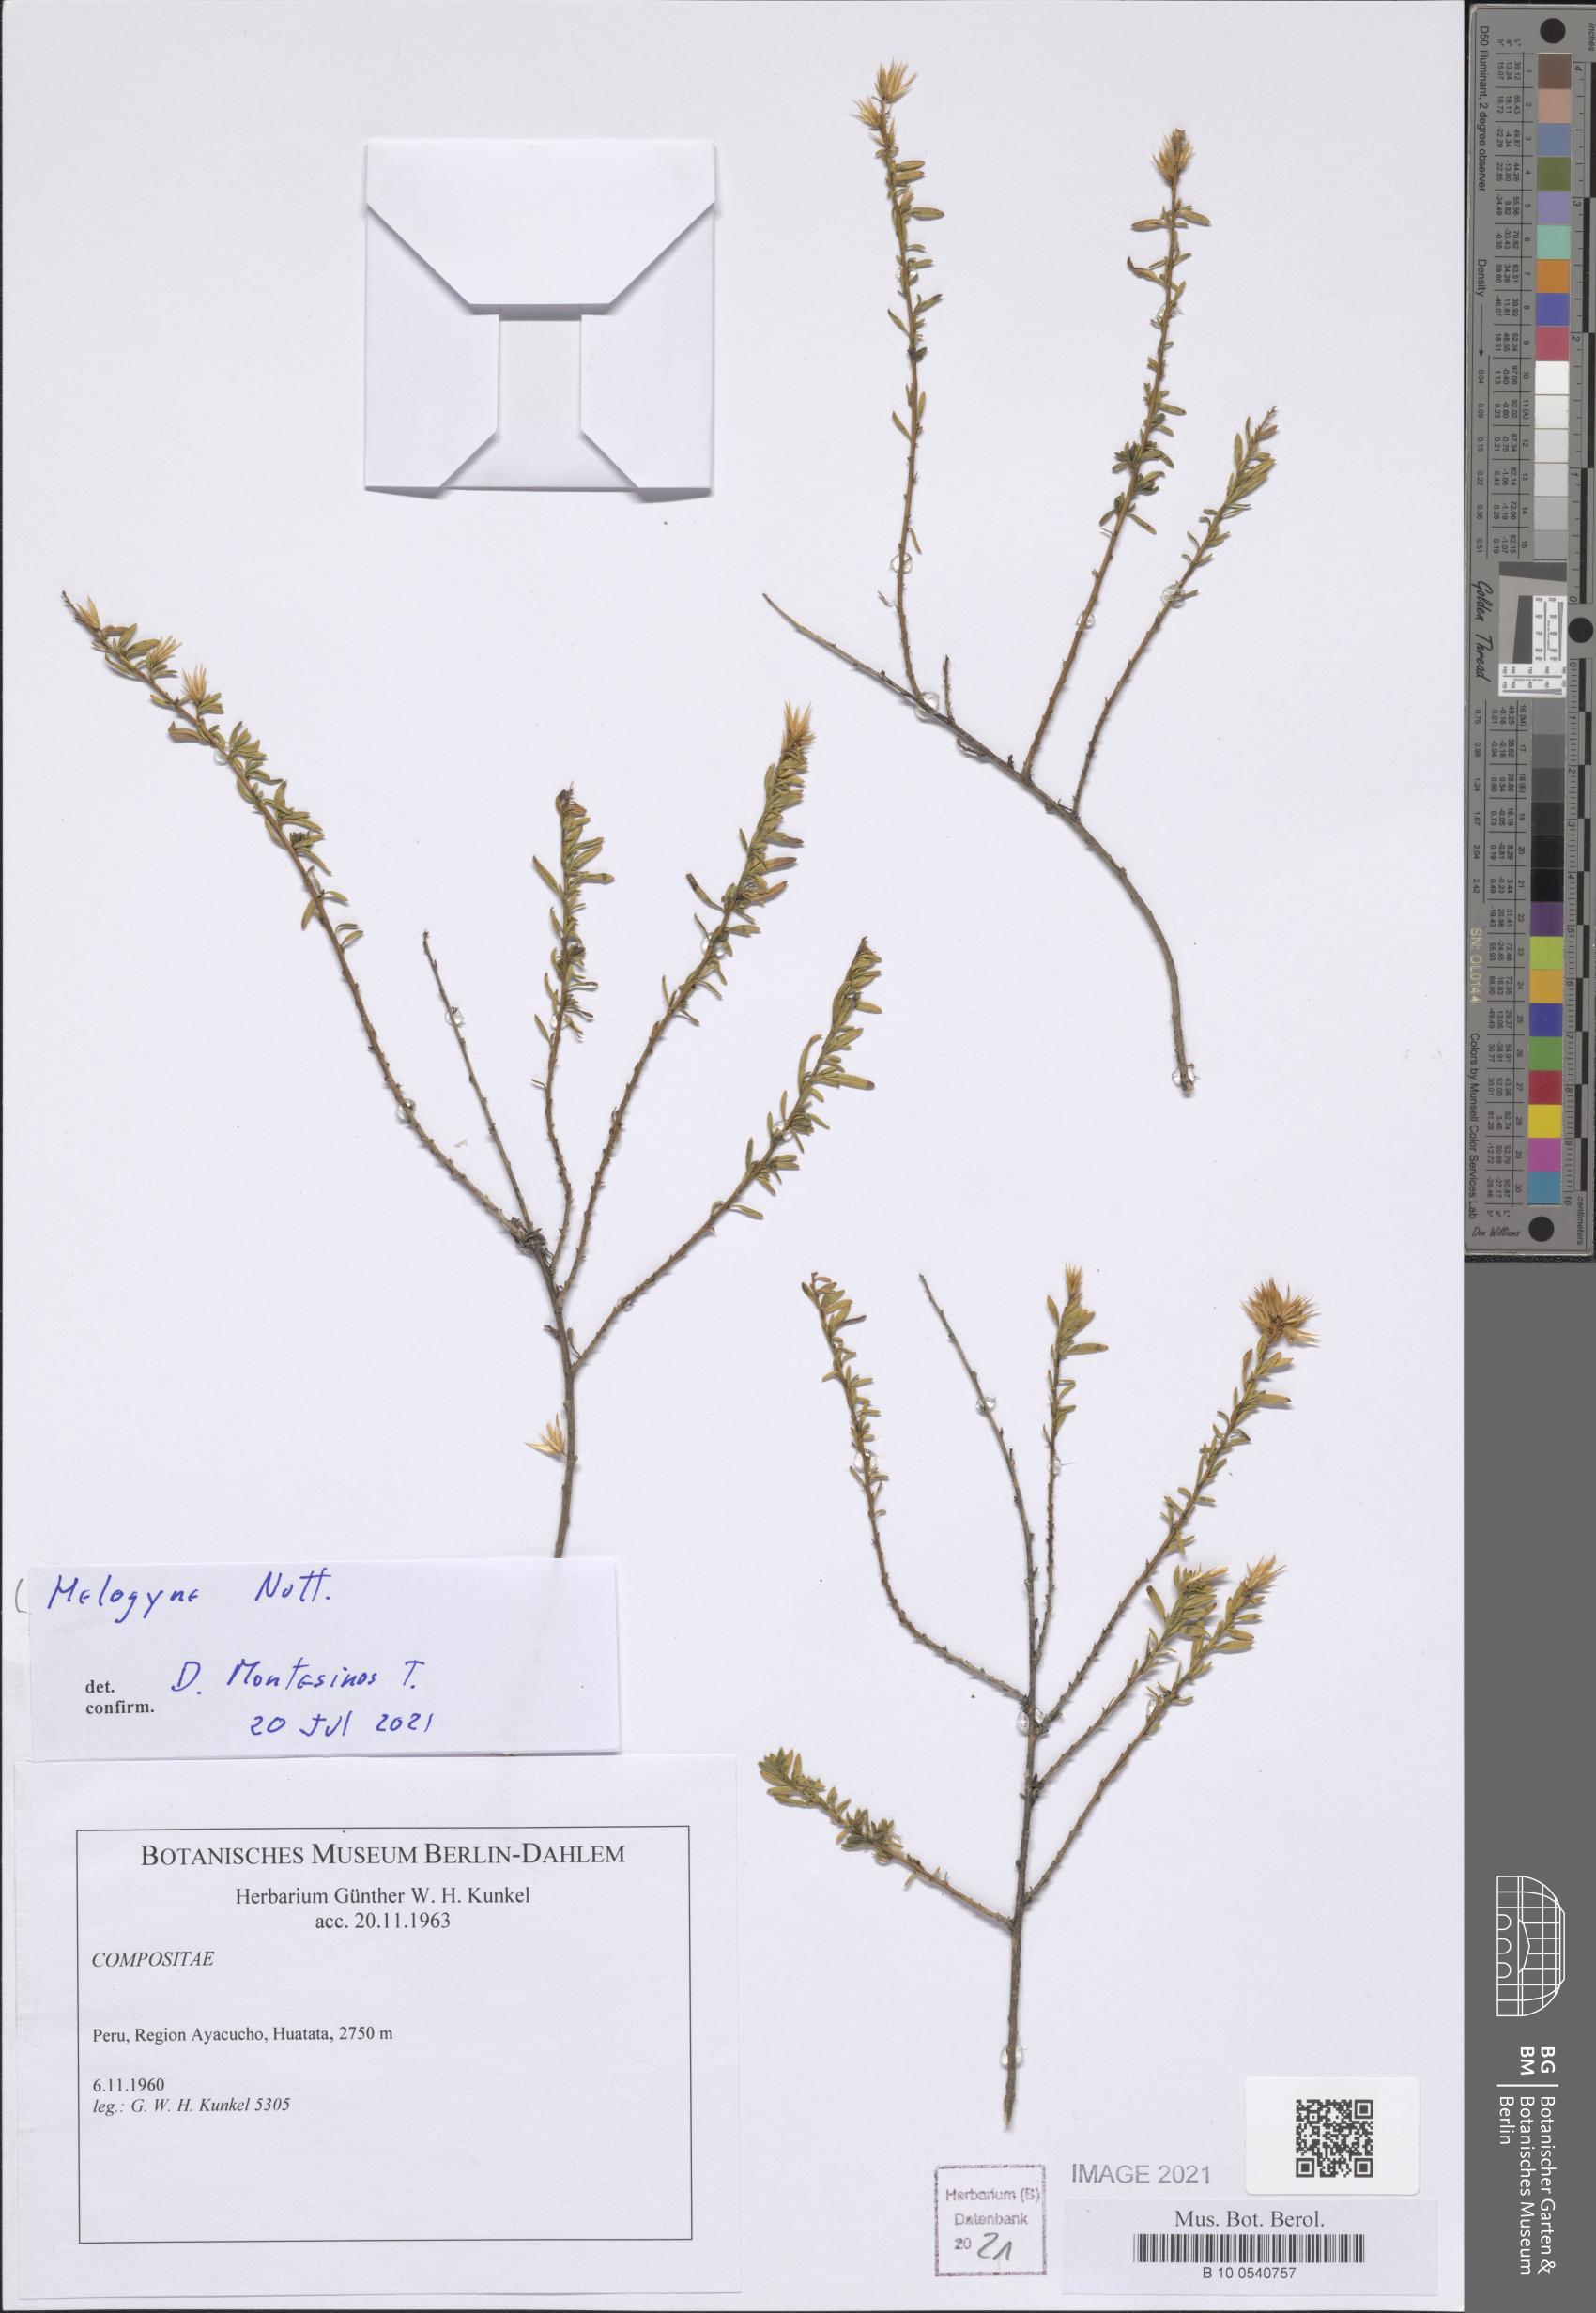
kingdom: Plantae
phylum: Tracheophyta
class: Magnoliopsida
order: Asterales
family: Asteraceae
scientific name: Asteraceae
